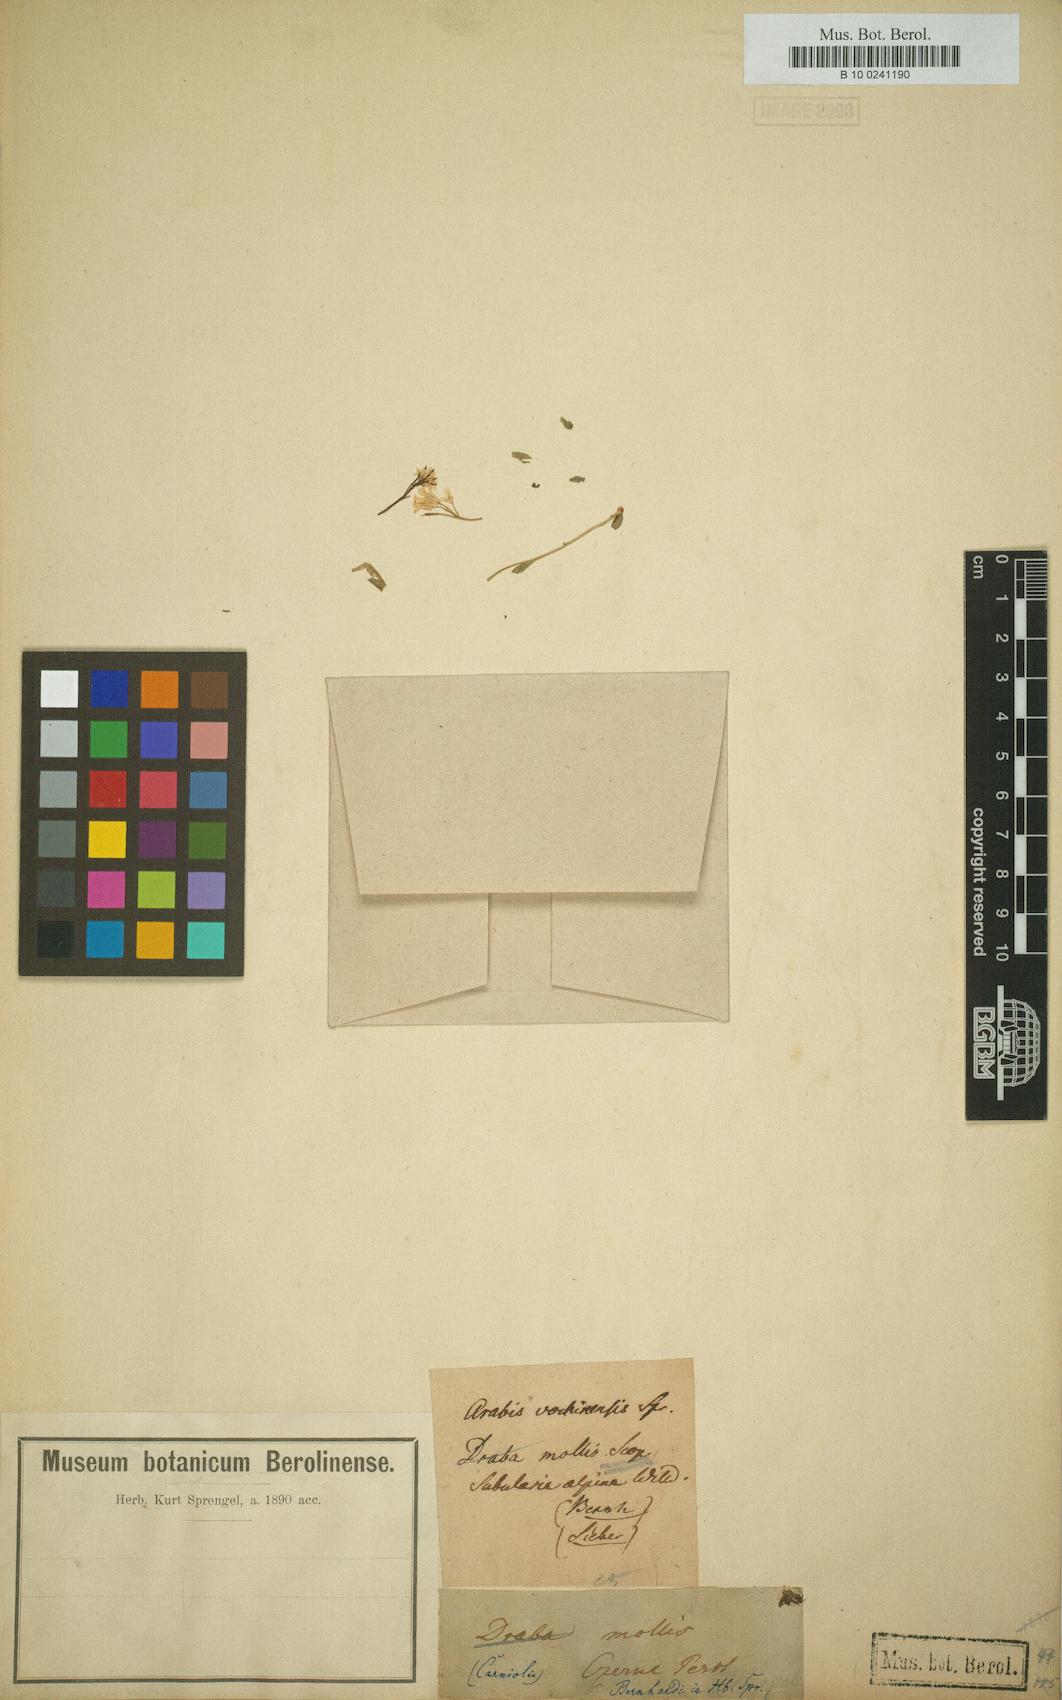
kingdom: Plantae
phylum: Tracheophyta
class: Magnoliopsida
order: Brassicales
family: Brassicaceae
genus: Arabis
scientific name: Arabis vochinensis
